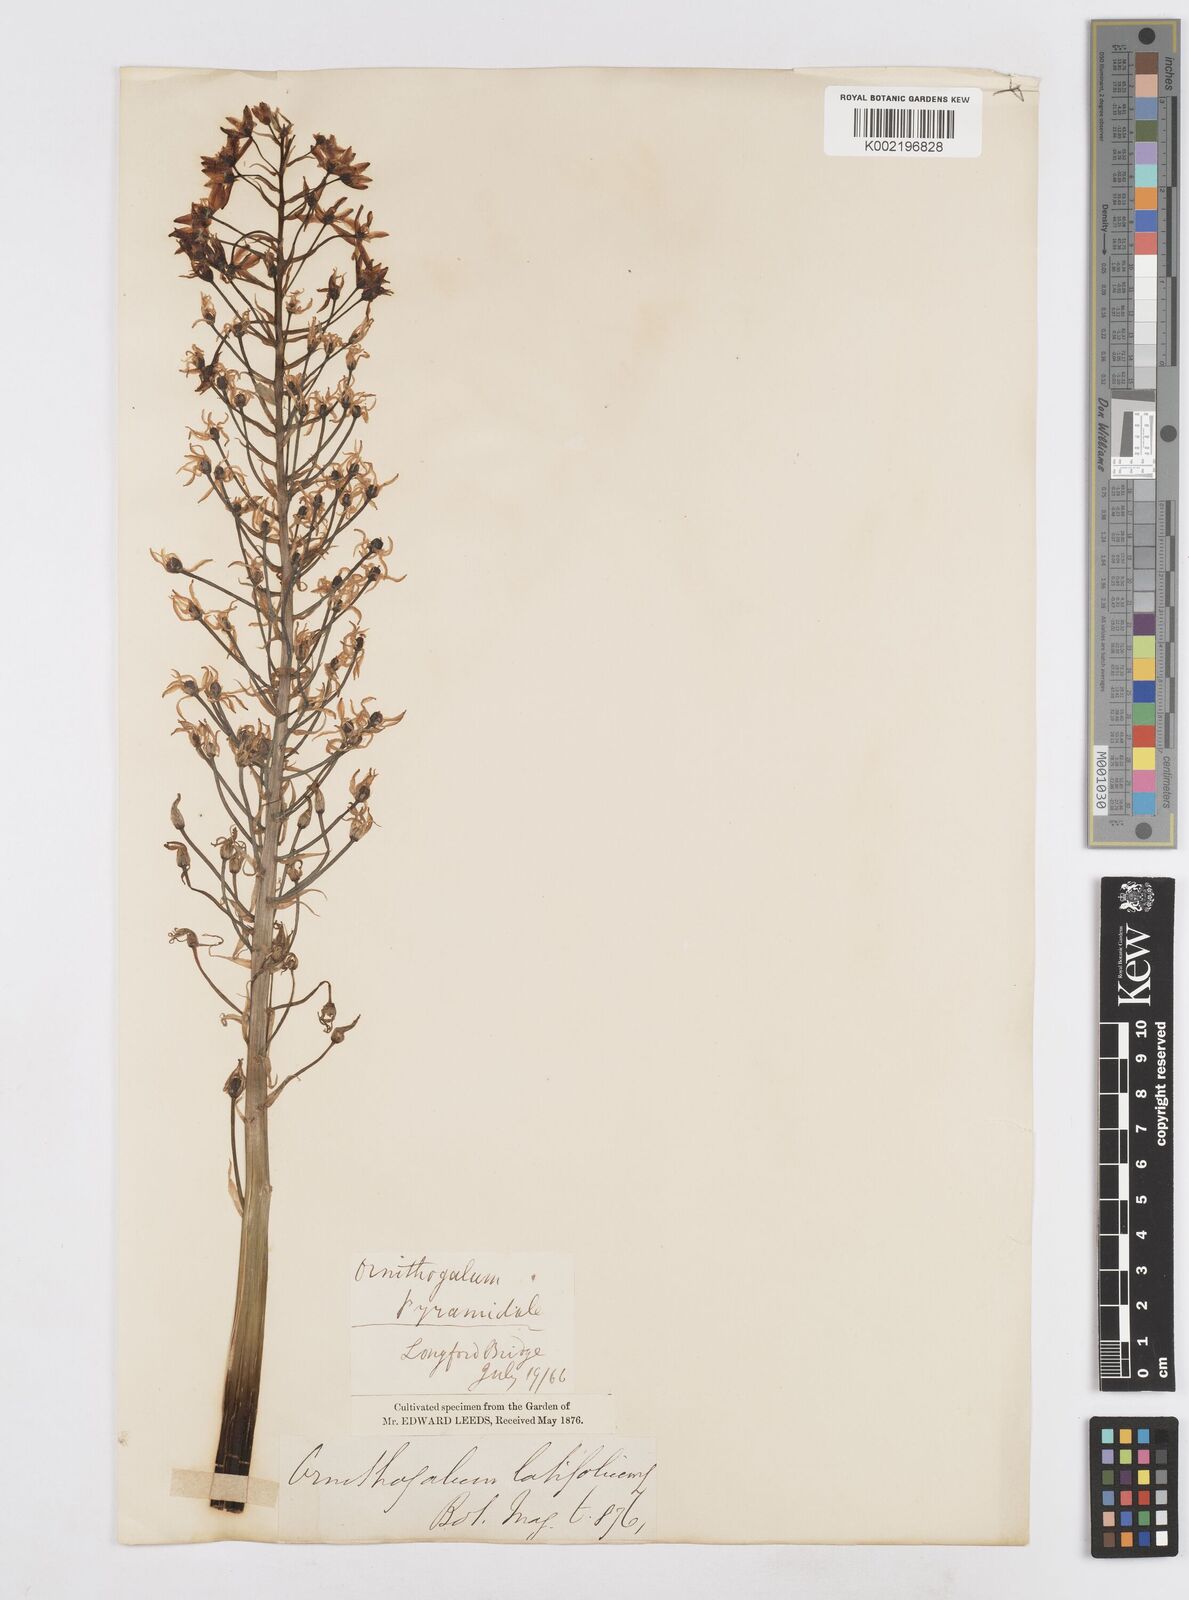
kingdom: Plantae
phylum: Tracheophyta
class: Liliopsida
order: Asparagales
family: Asparagaceae
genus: Ornithogalum
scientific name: Ornithogalum
